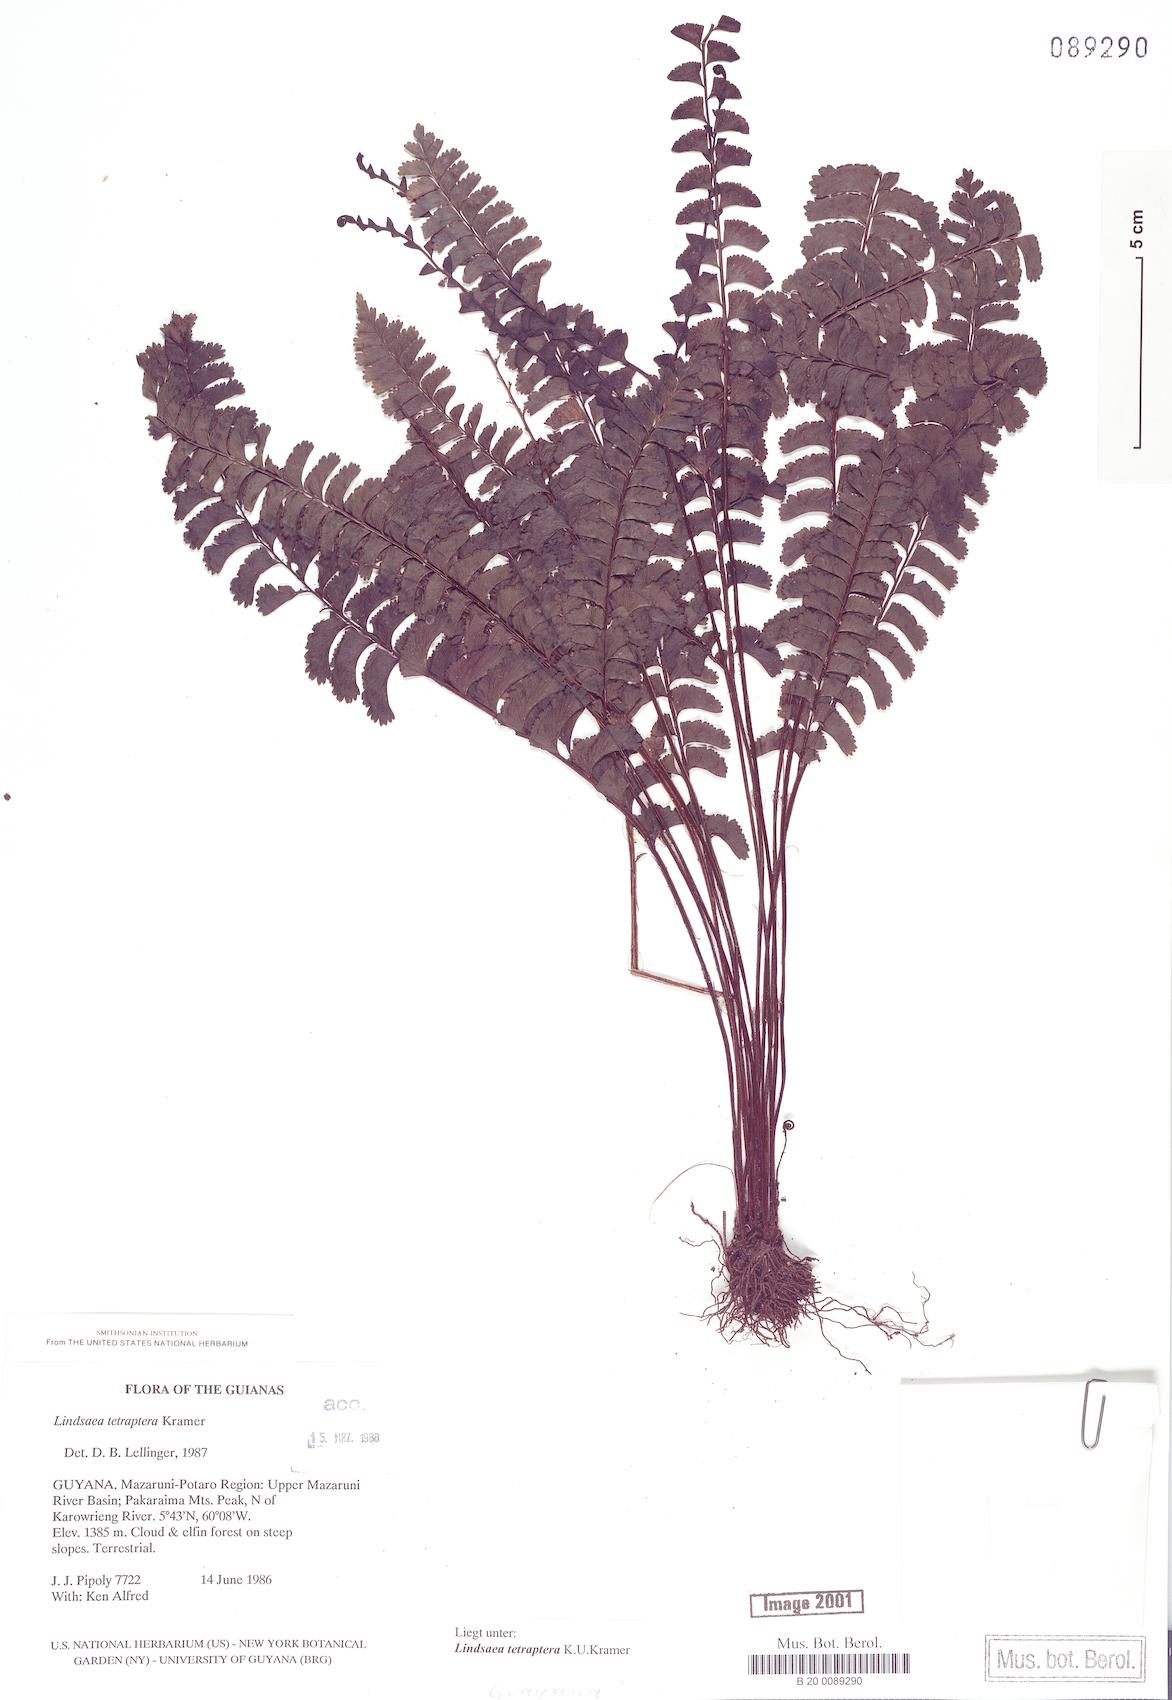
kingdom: Plantae
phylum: Tracheophyta
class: Polypodiopsida
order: Polypodiales
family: Lindsaeaceae
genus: Lindsaea
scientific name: Lindsaea tetraptera
